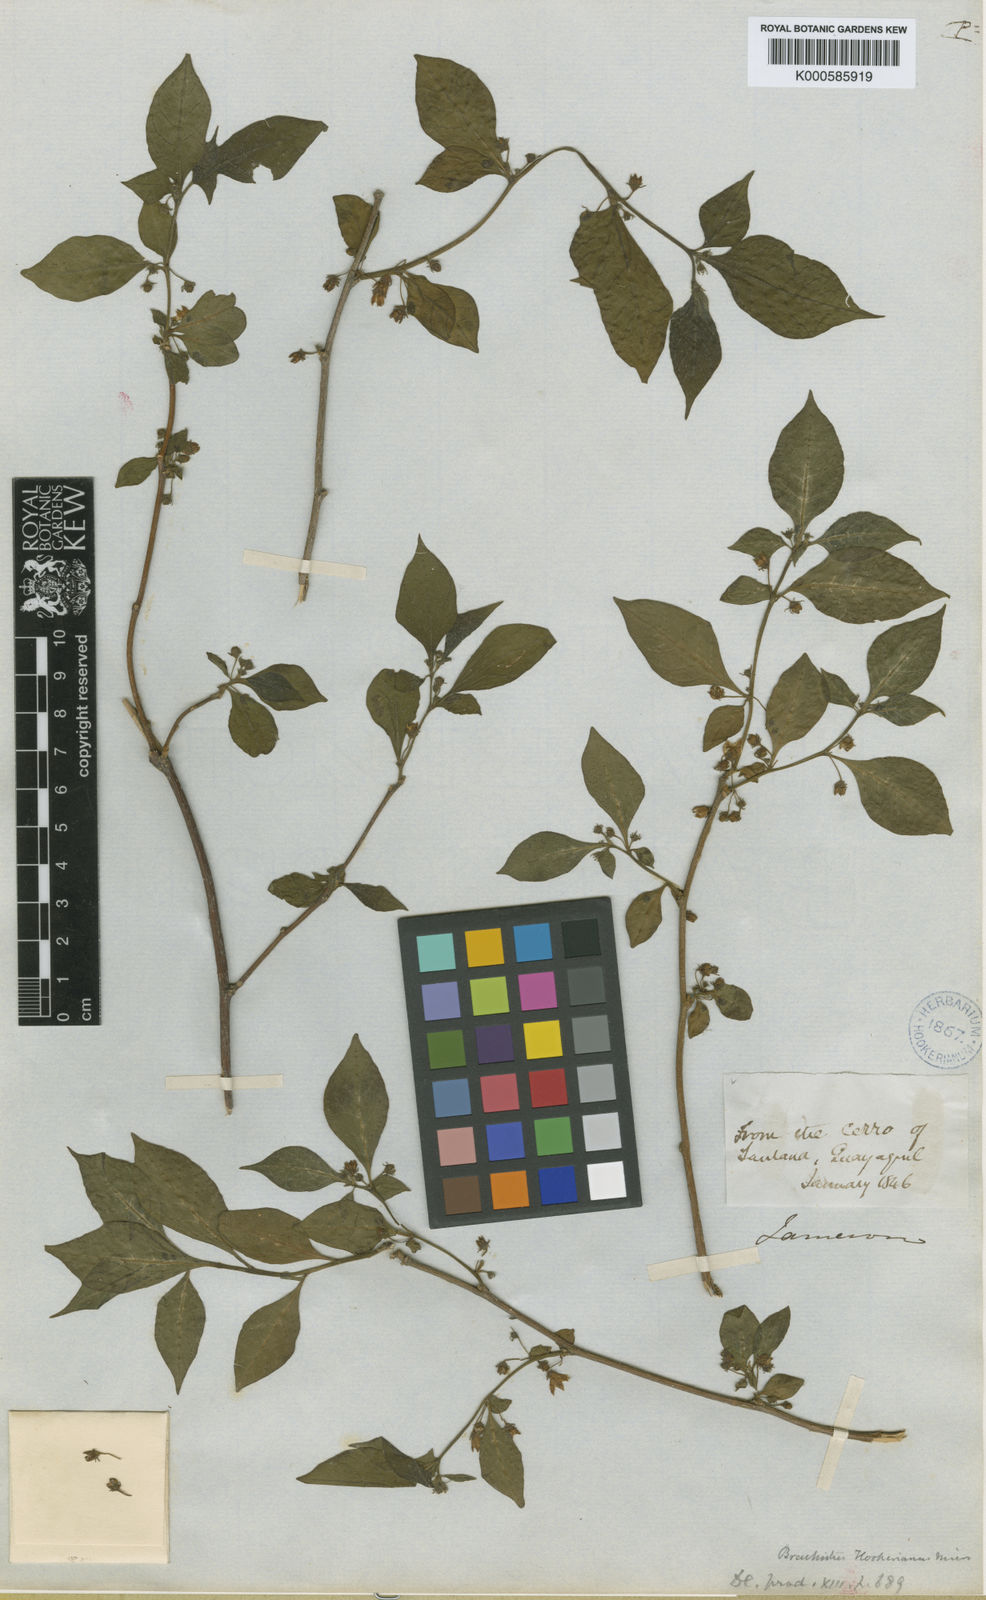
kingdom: Plantae
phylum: Tracheophyta
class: Magnoliopsida
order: Solanales
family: Solanaceae
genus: Capsicum
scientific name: Capsicum hookerianum
